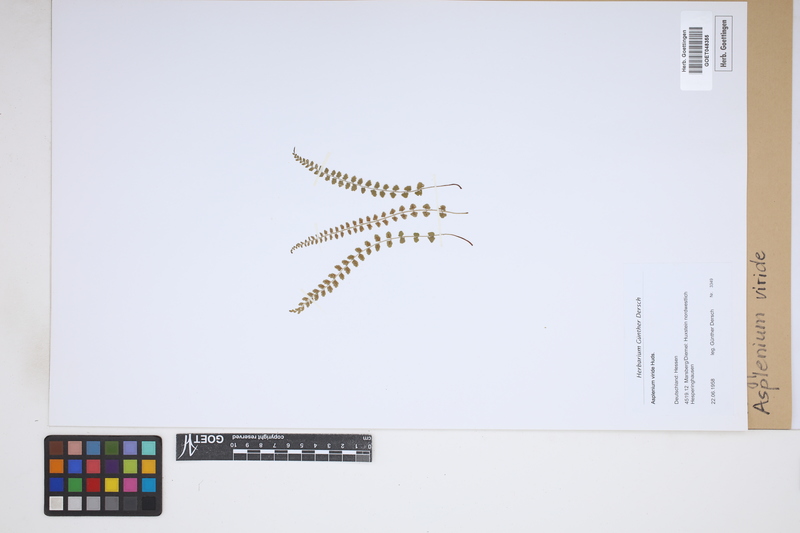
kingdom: Plantae
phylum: Tracheophyta
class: Polypodiopsida
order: Polypodiales
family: Aspleniaceae
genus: Asplenium
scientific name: Asplenium viride
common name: Green spleenwort
